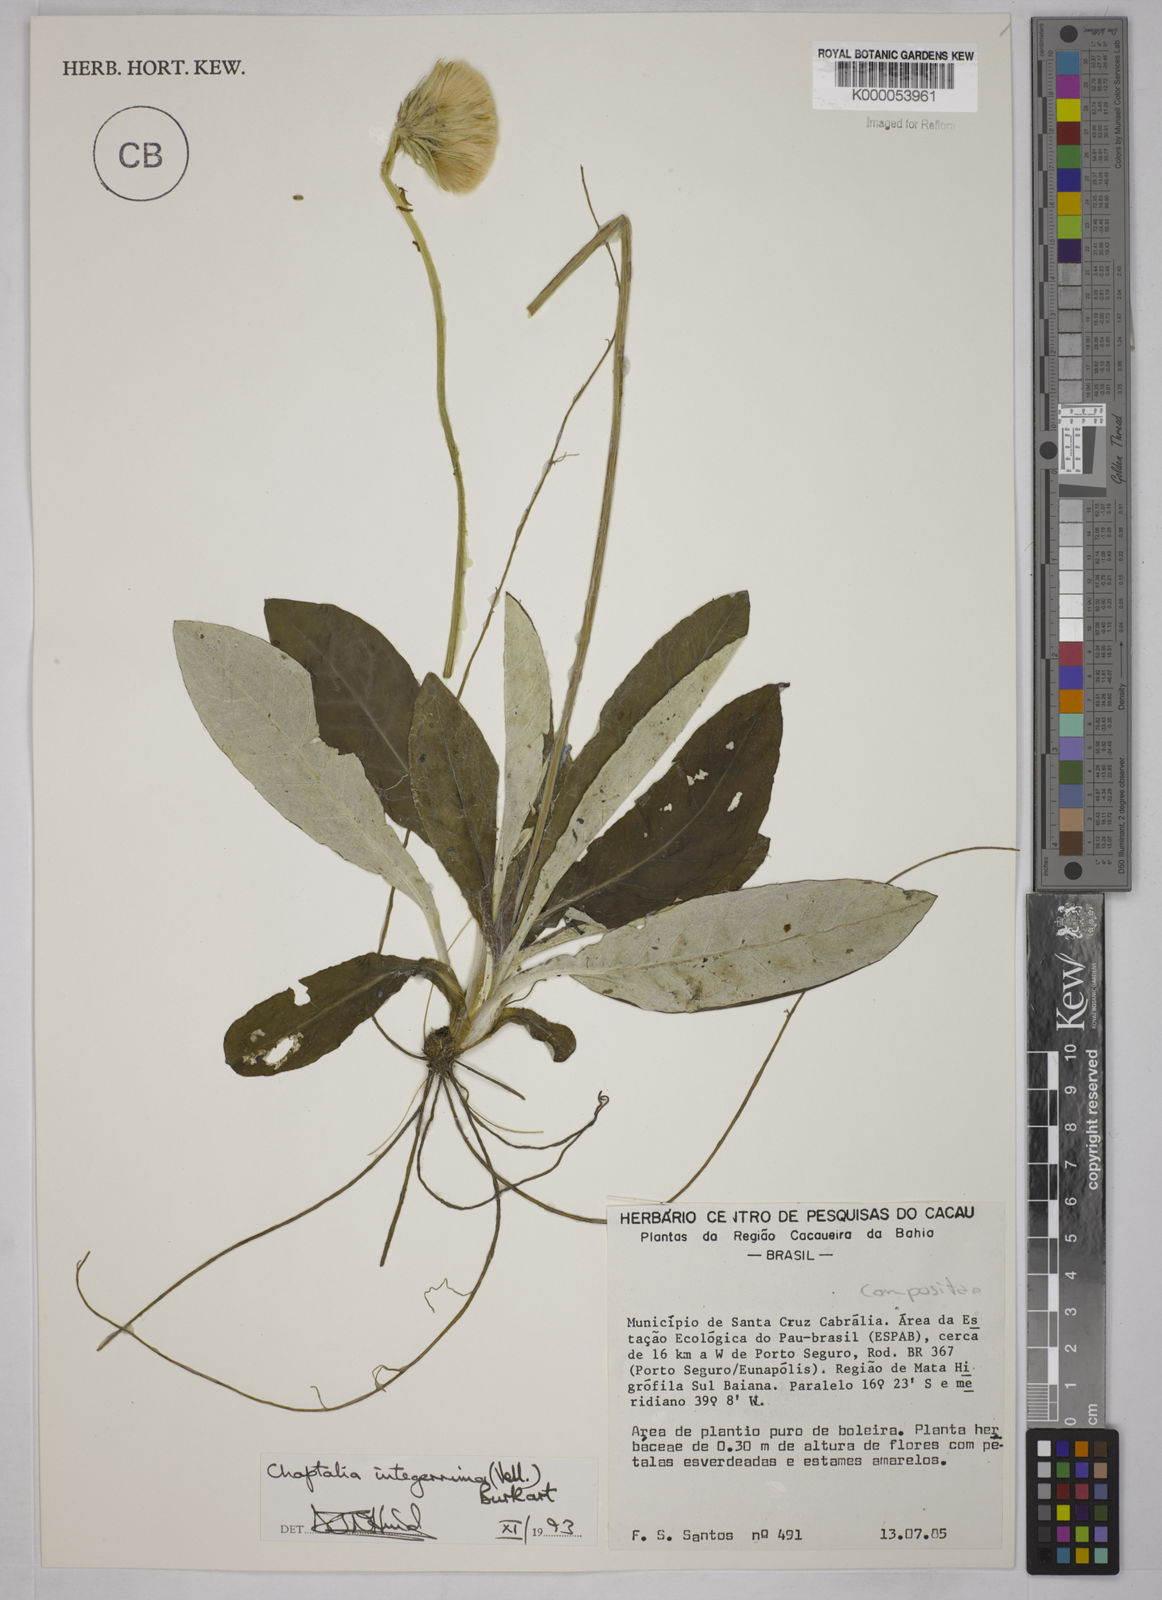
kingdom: Plantae
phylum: Tracheophyta
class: Magnoliopsida
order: Asterales
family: Asteraceae
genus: Chaptalia
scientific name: Chaptalia integerrima
